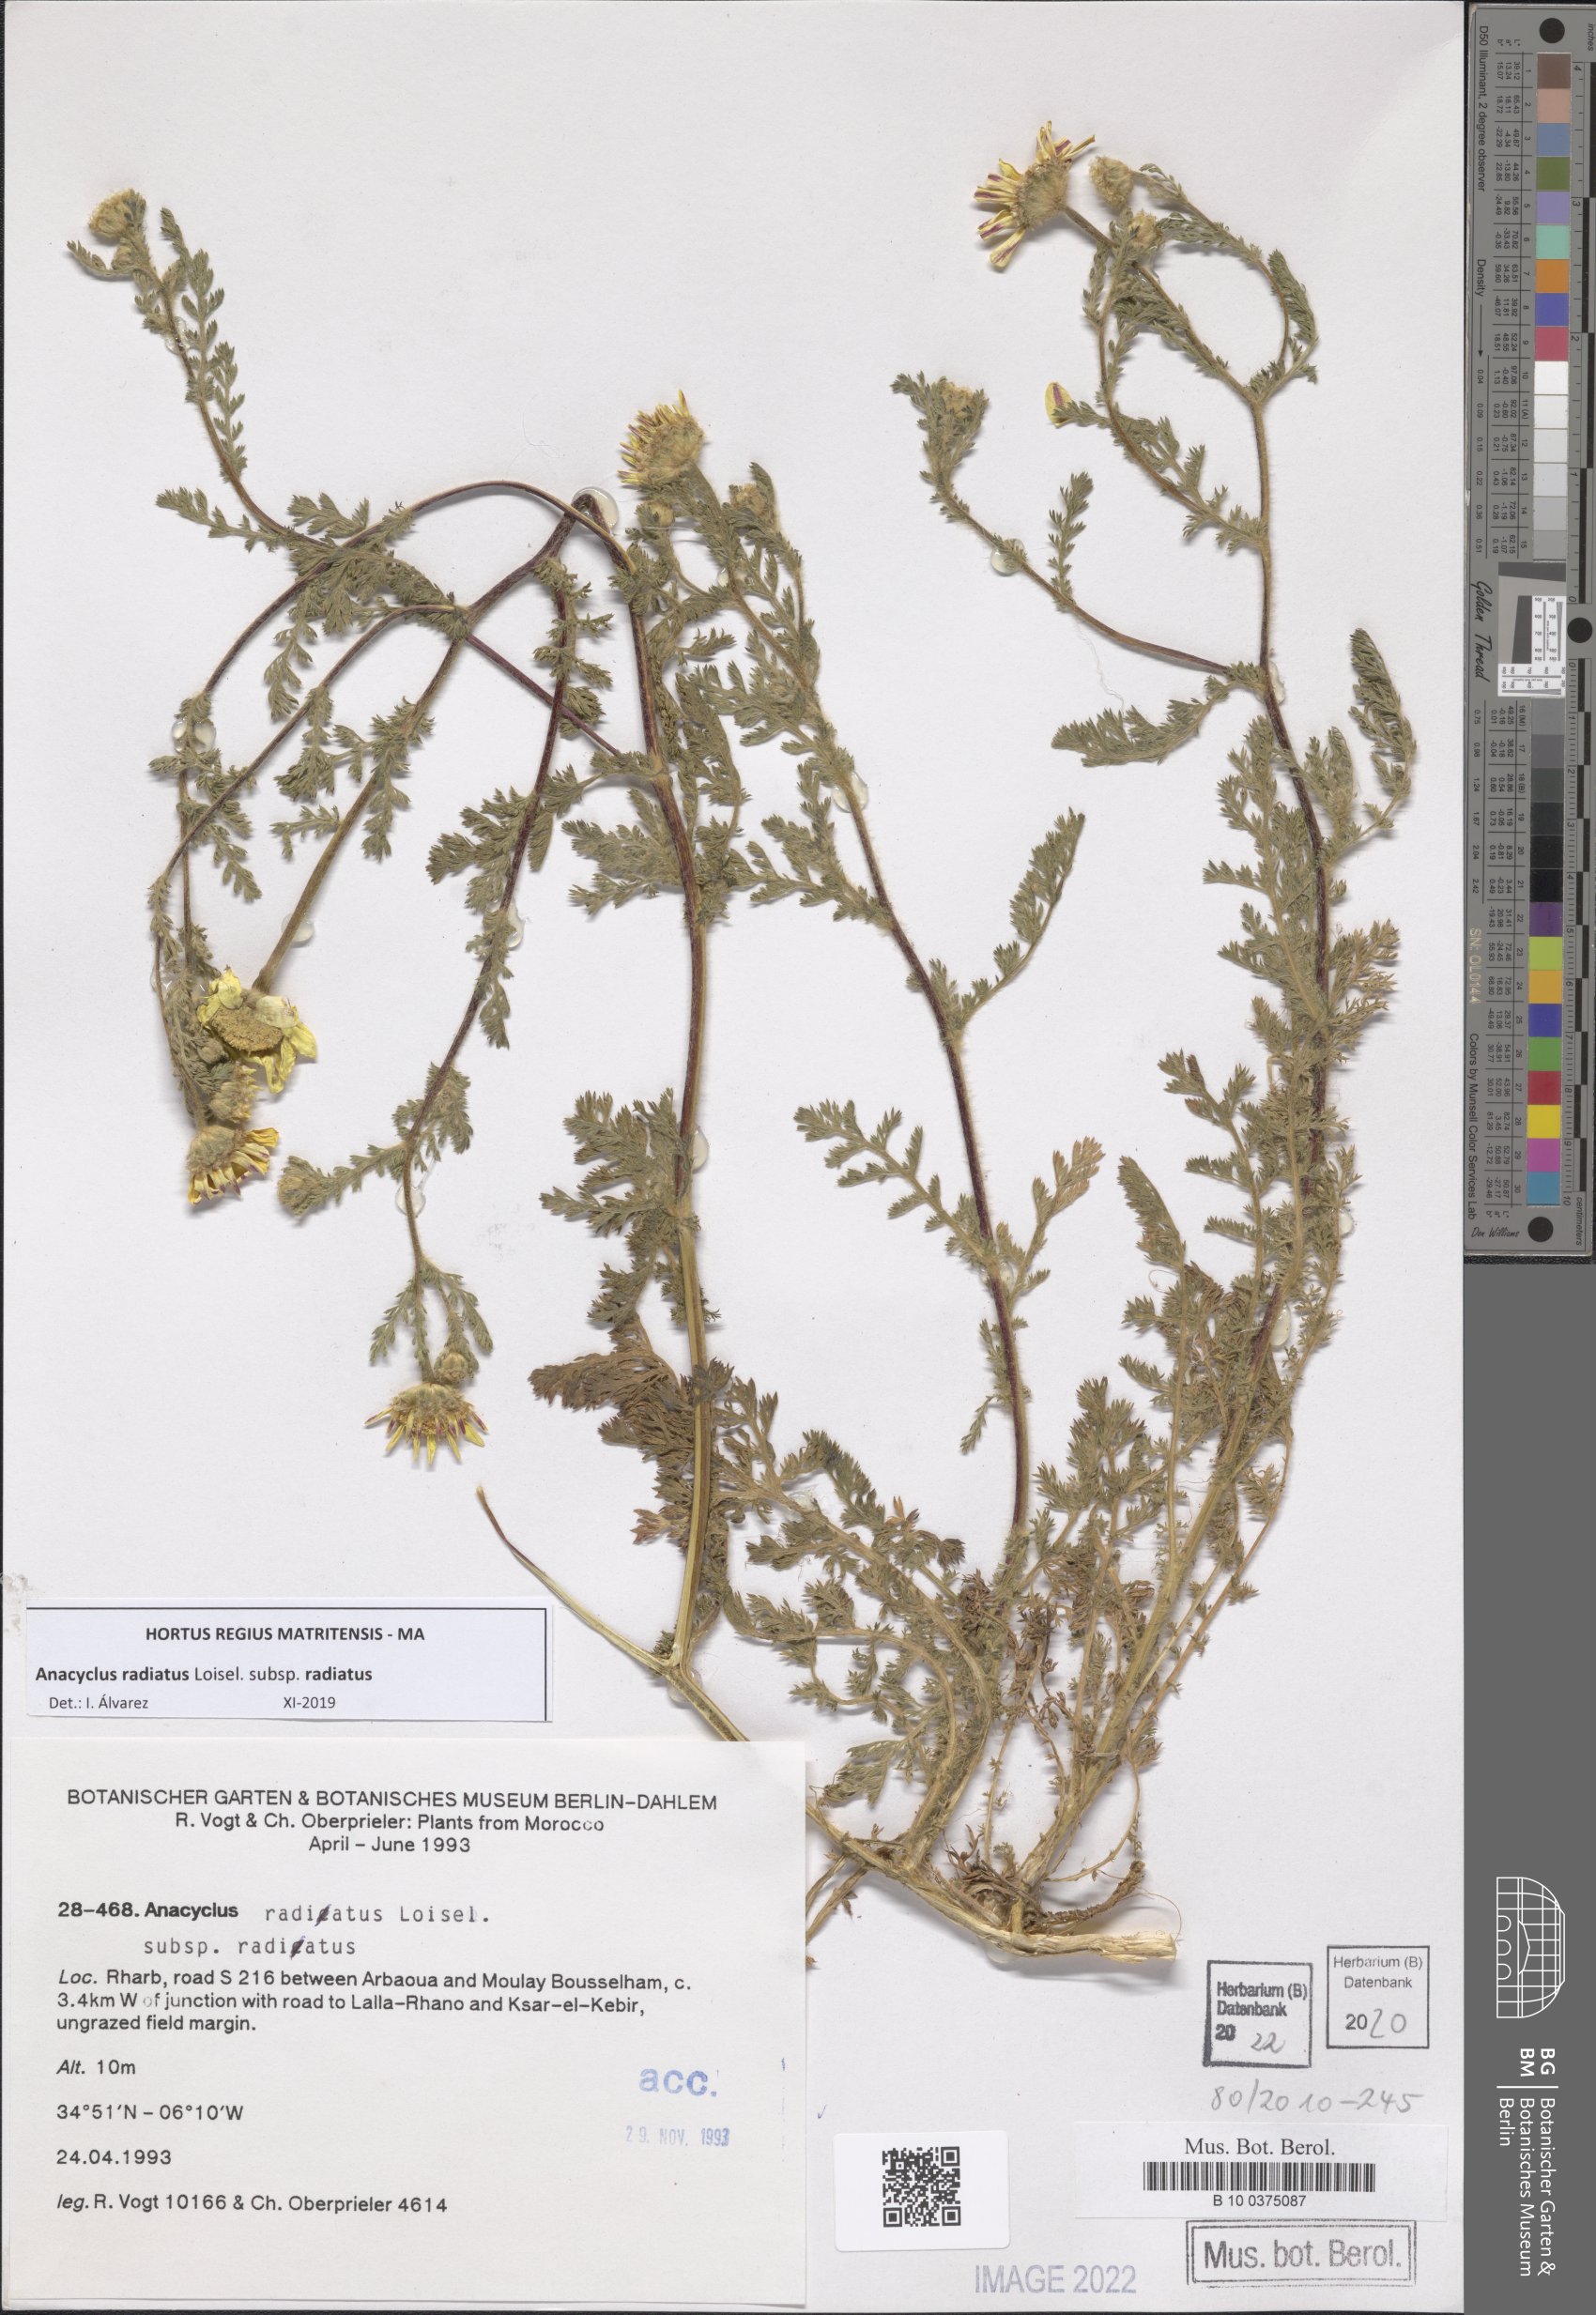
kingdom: Plantae
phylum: Tracheophyta
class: Magnoliopsida
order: Asterales
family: Asteraceae
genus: Anacyclus
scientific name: Anacyclus radiatus
